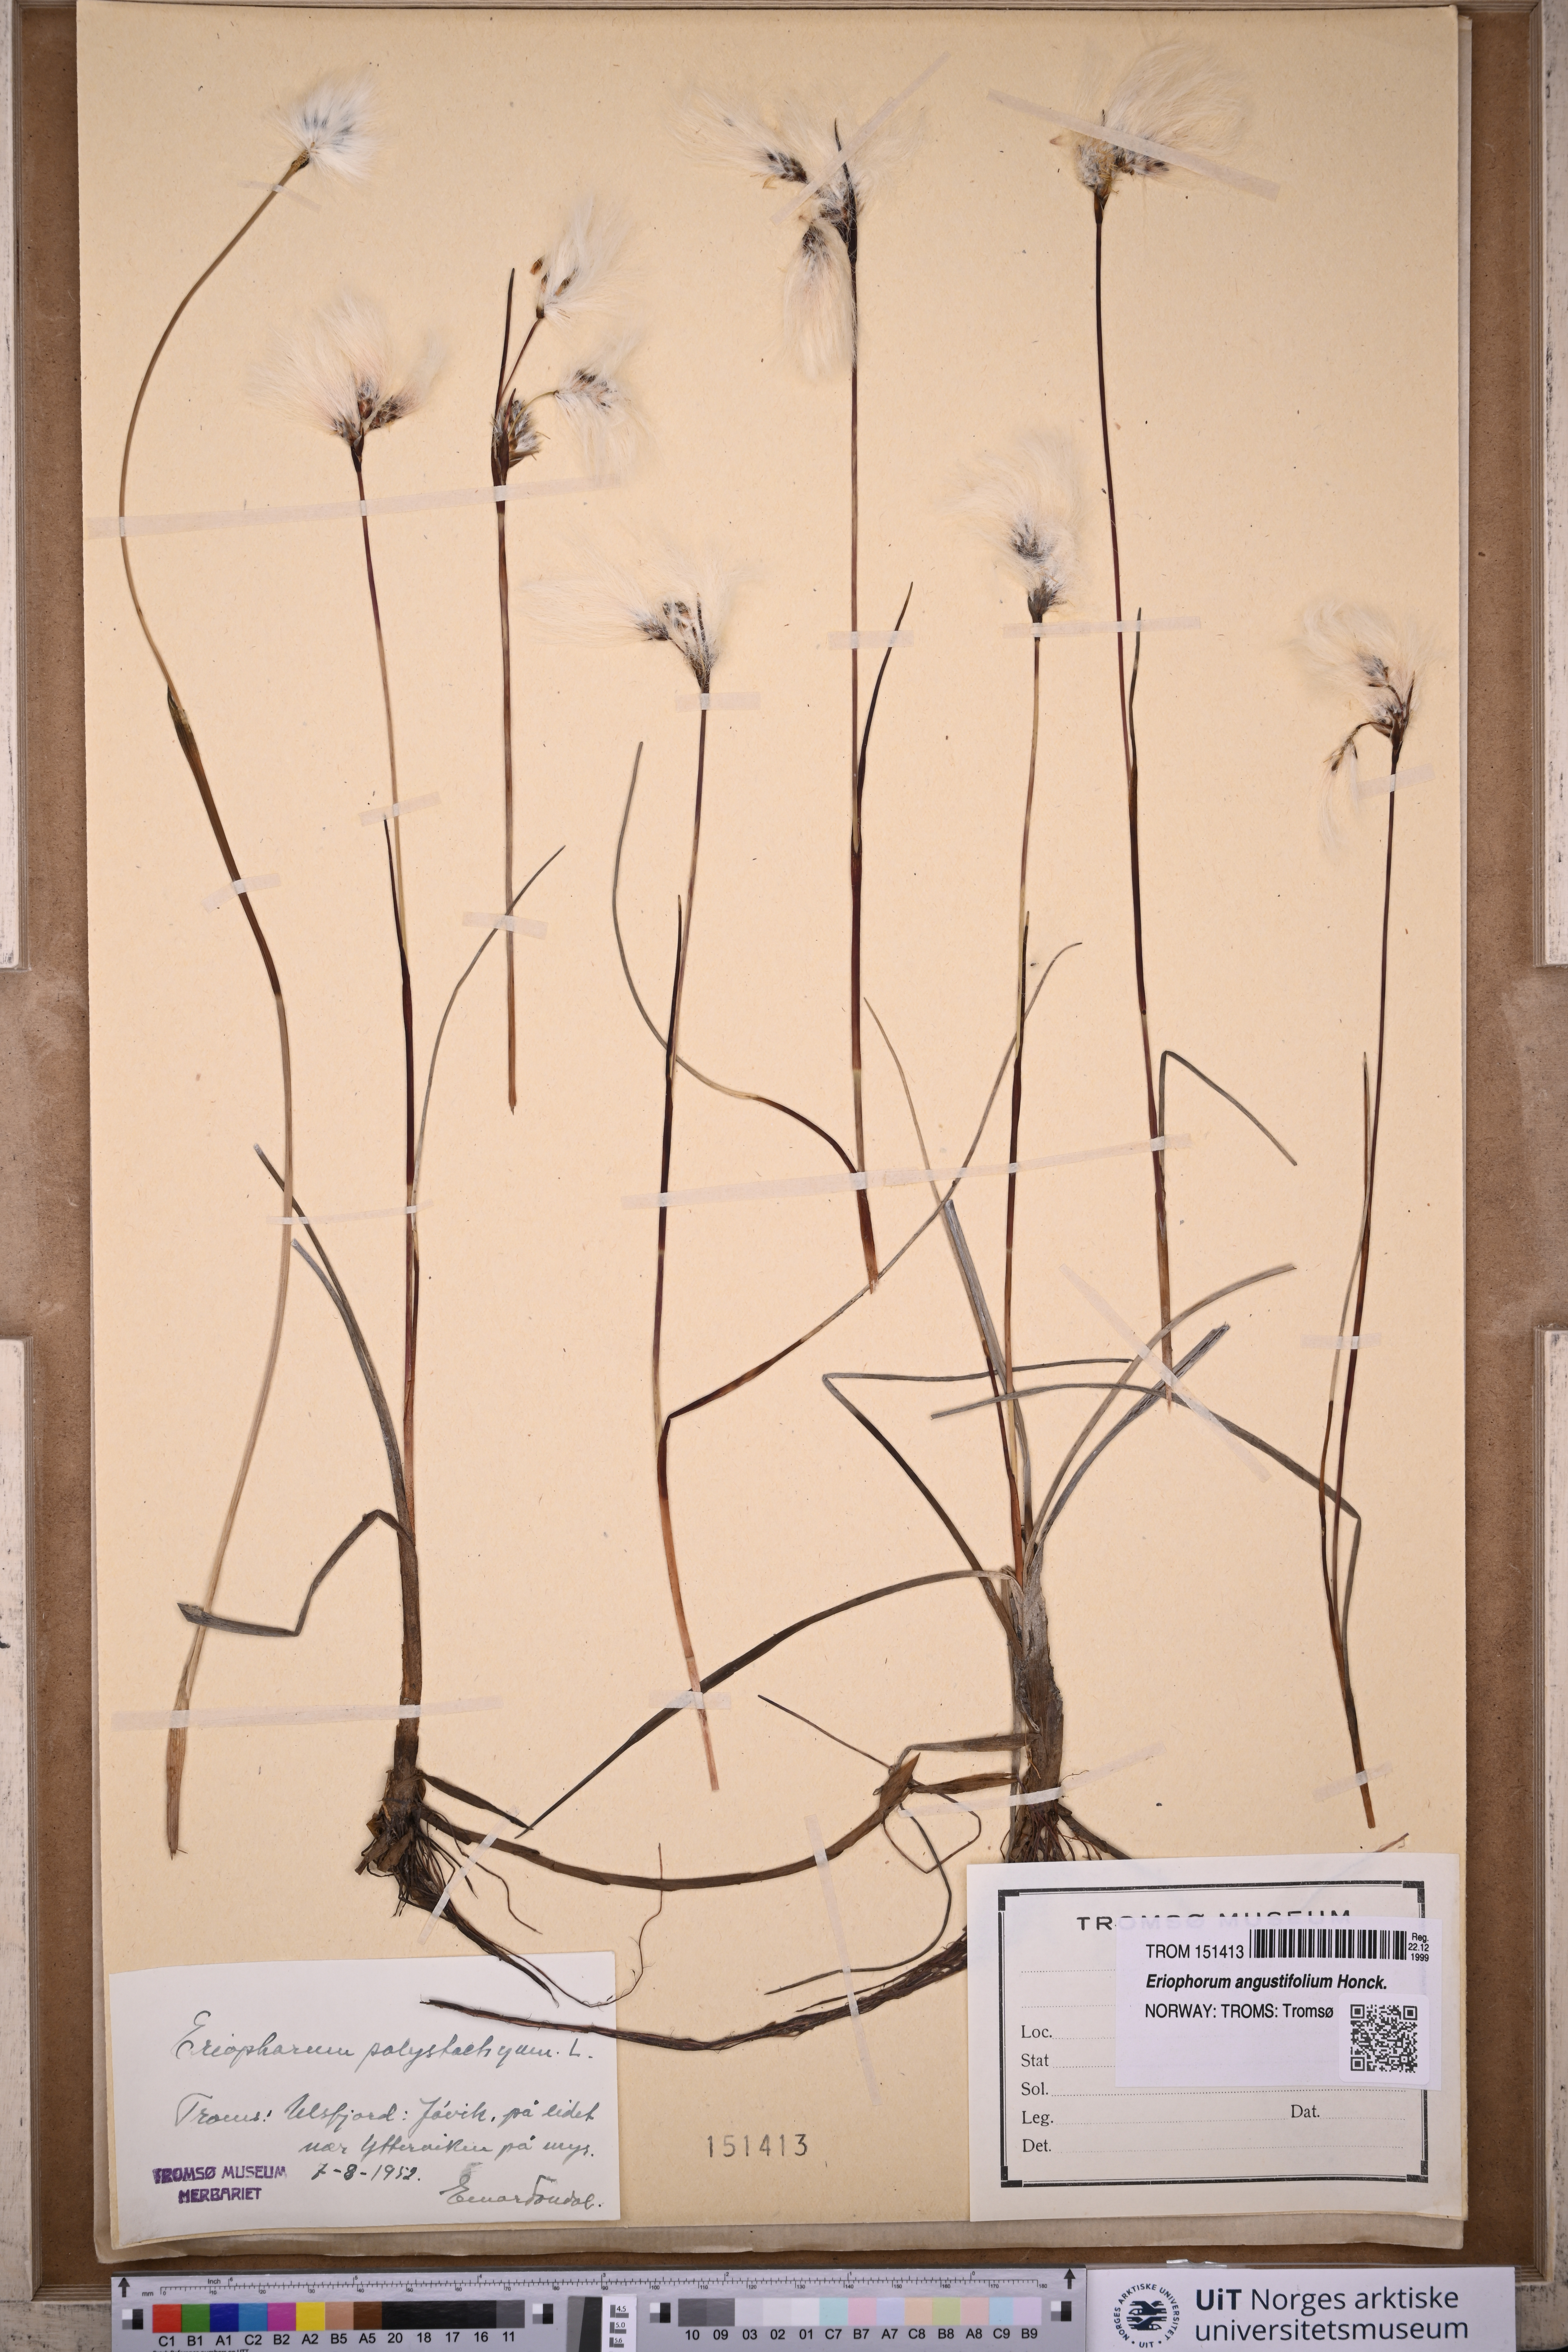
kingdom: Plantae
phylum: Tracheophyta
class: Liliopsida
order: Poales
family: Cyperaceae
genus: Eriophorum
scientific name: Eriophorum angustifolium
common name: Common cottongrass
